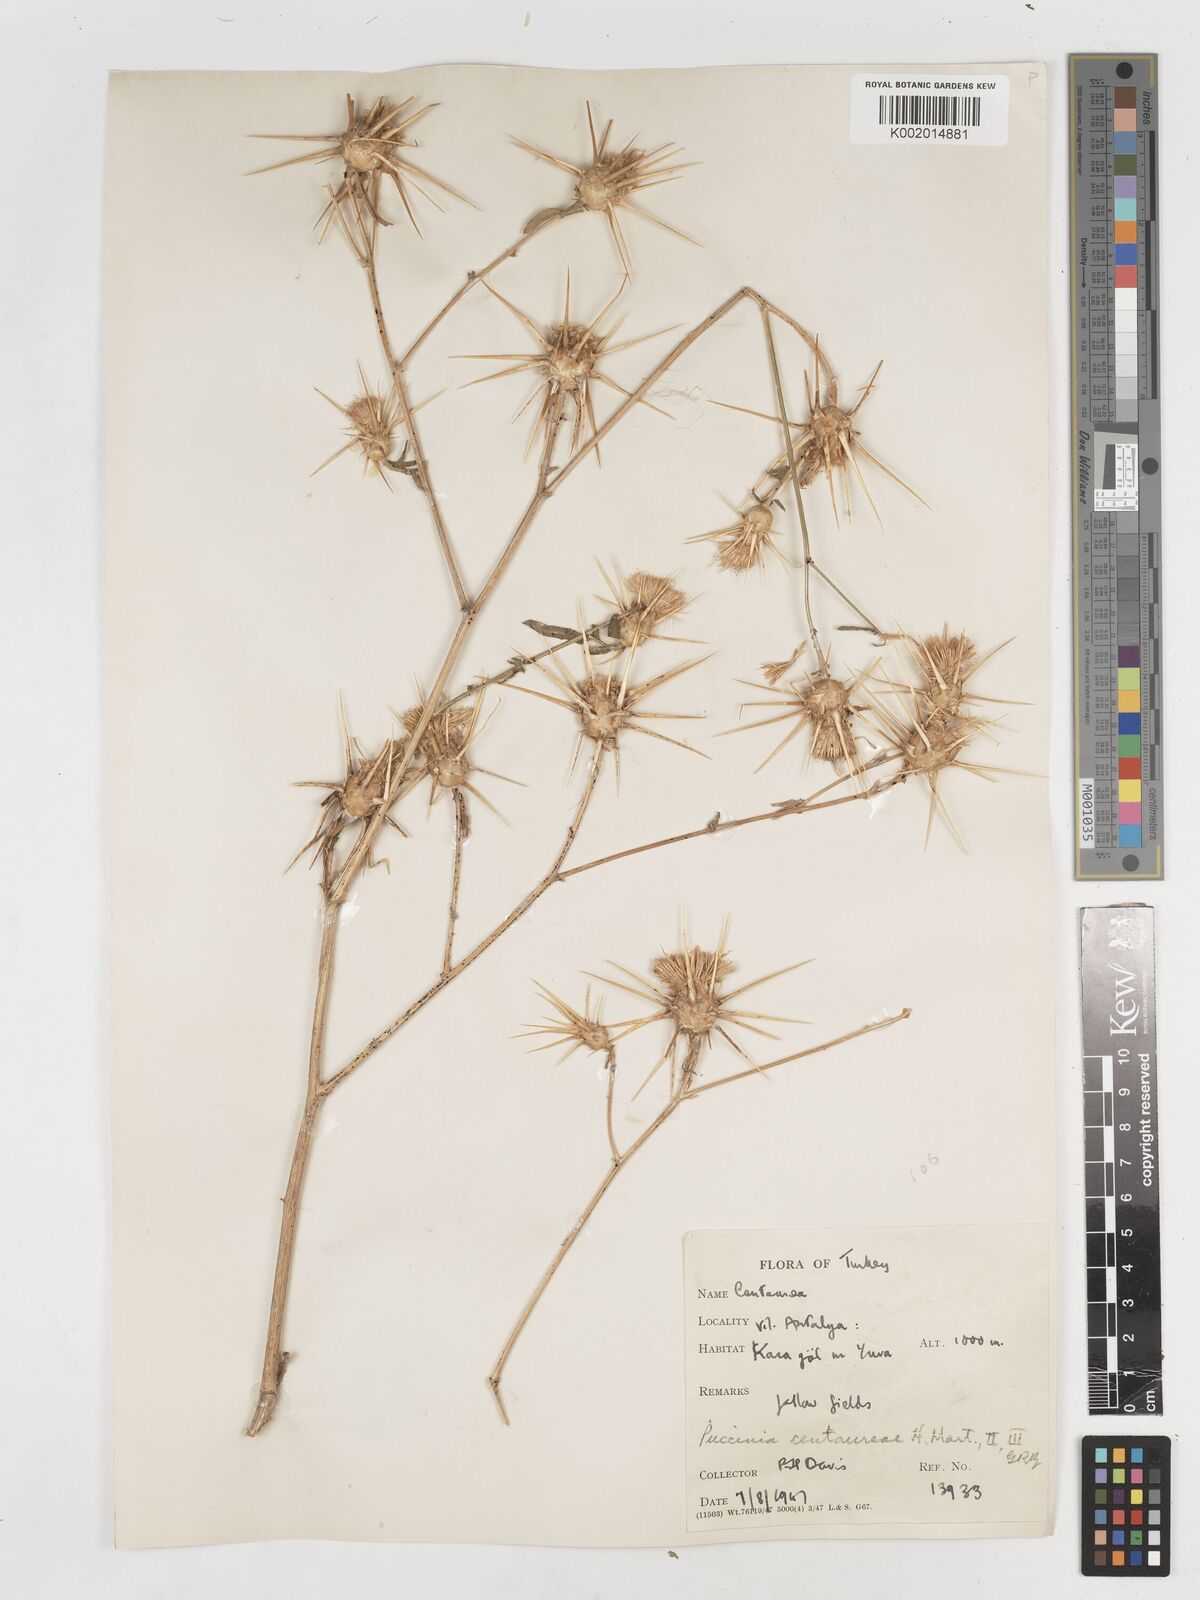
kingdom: Plantae
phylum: Tracheophyta
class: Magnoliopsida
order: Asterales
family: Asteraceae
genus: Centaurea
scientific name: Centaurea iberica
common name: Iberian knapweed
